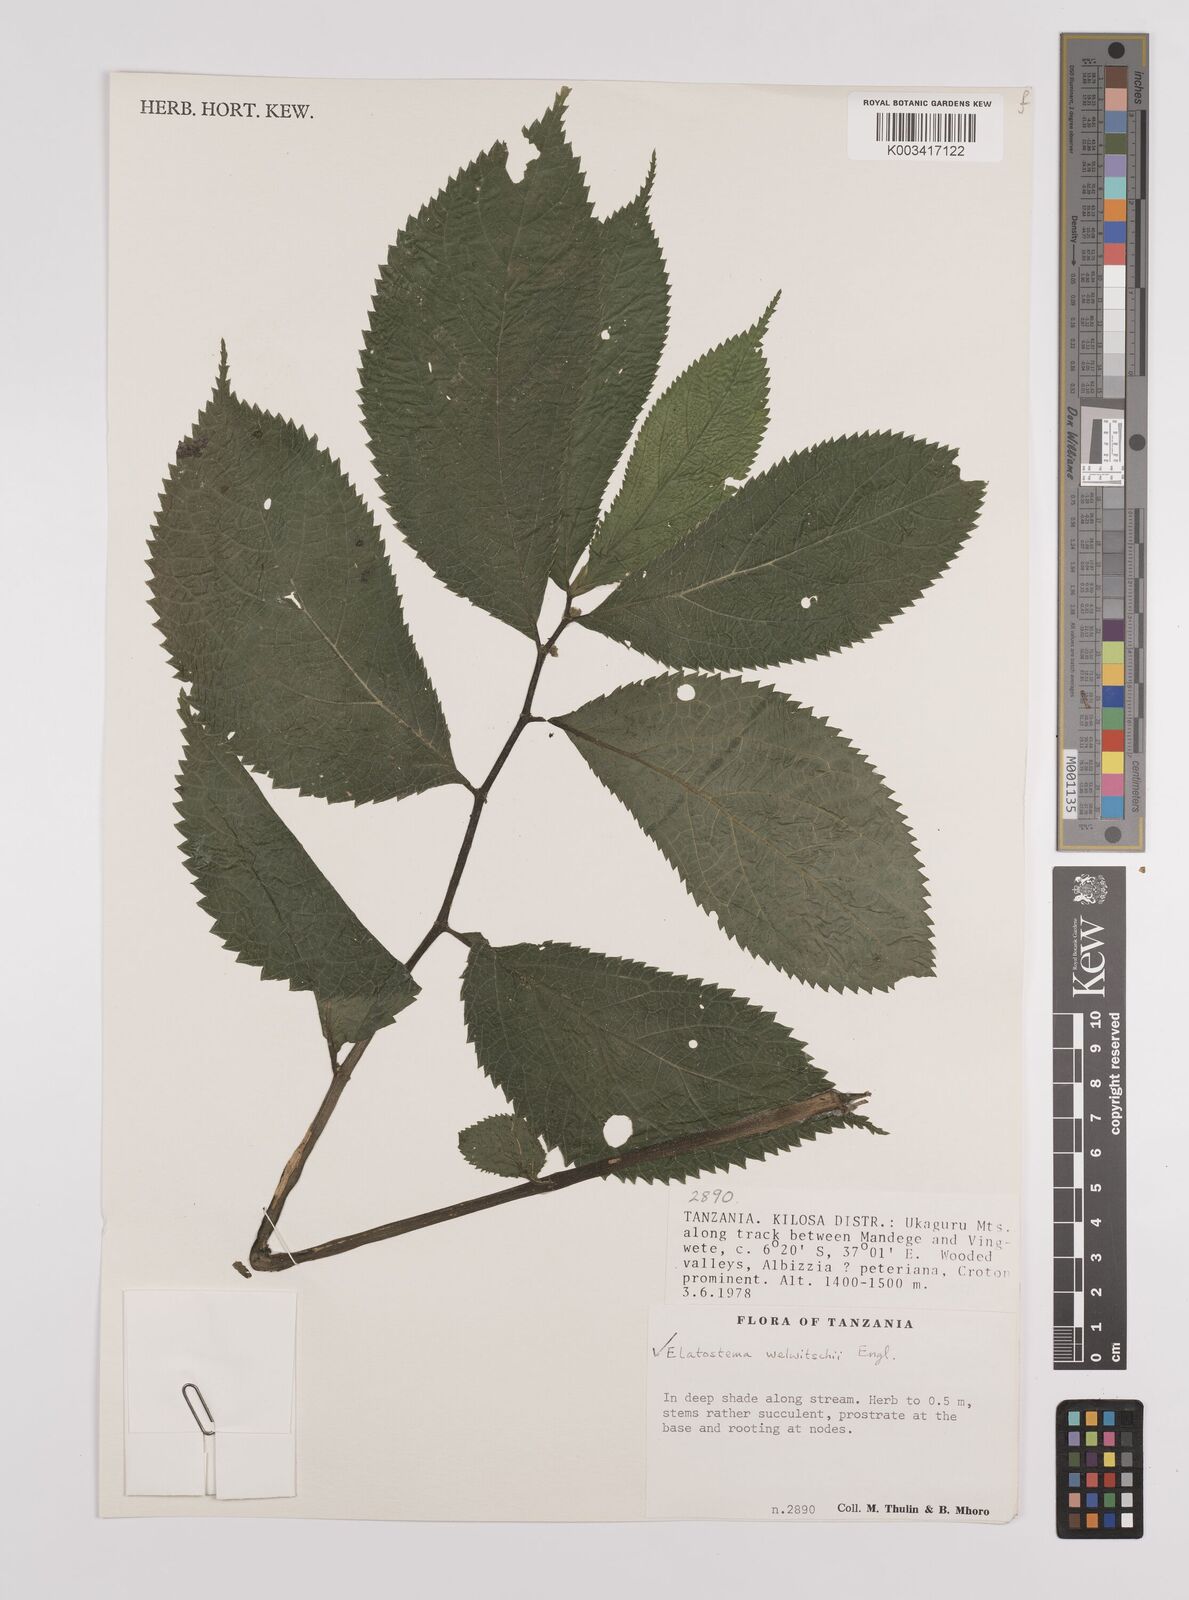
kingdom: Plantae
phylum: Tracheophyta
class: Magnoliopsida
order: Rosales
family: Urticaceae
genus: Elatostema
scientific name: Elatostema welwitschii
